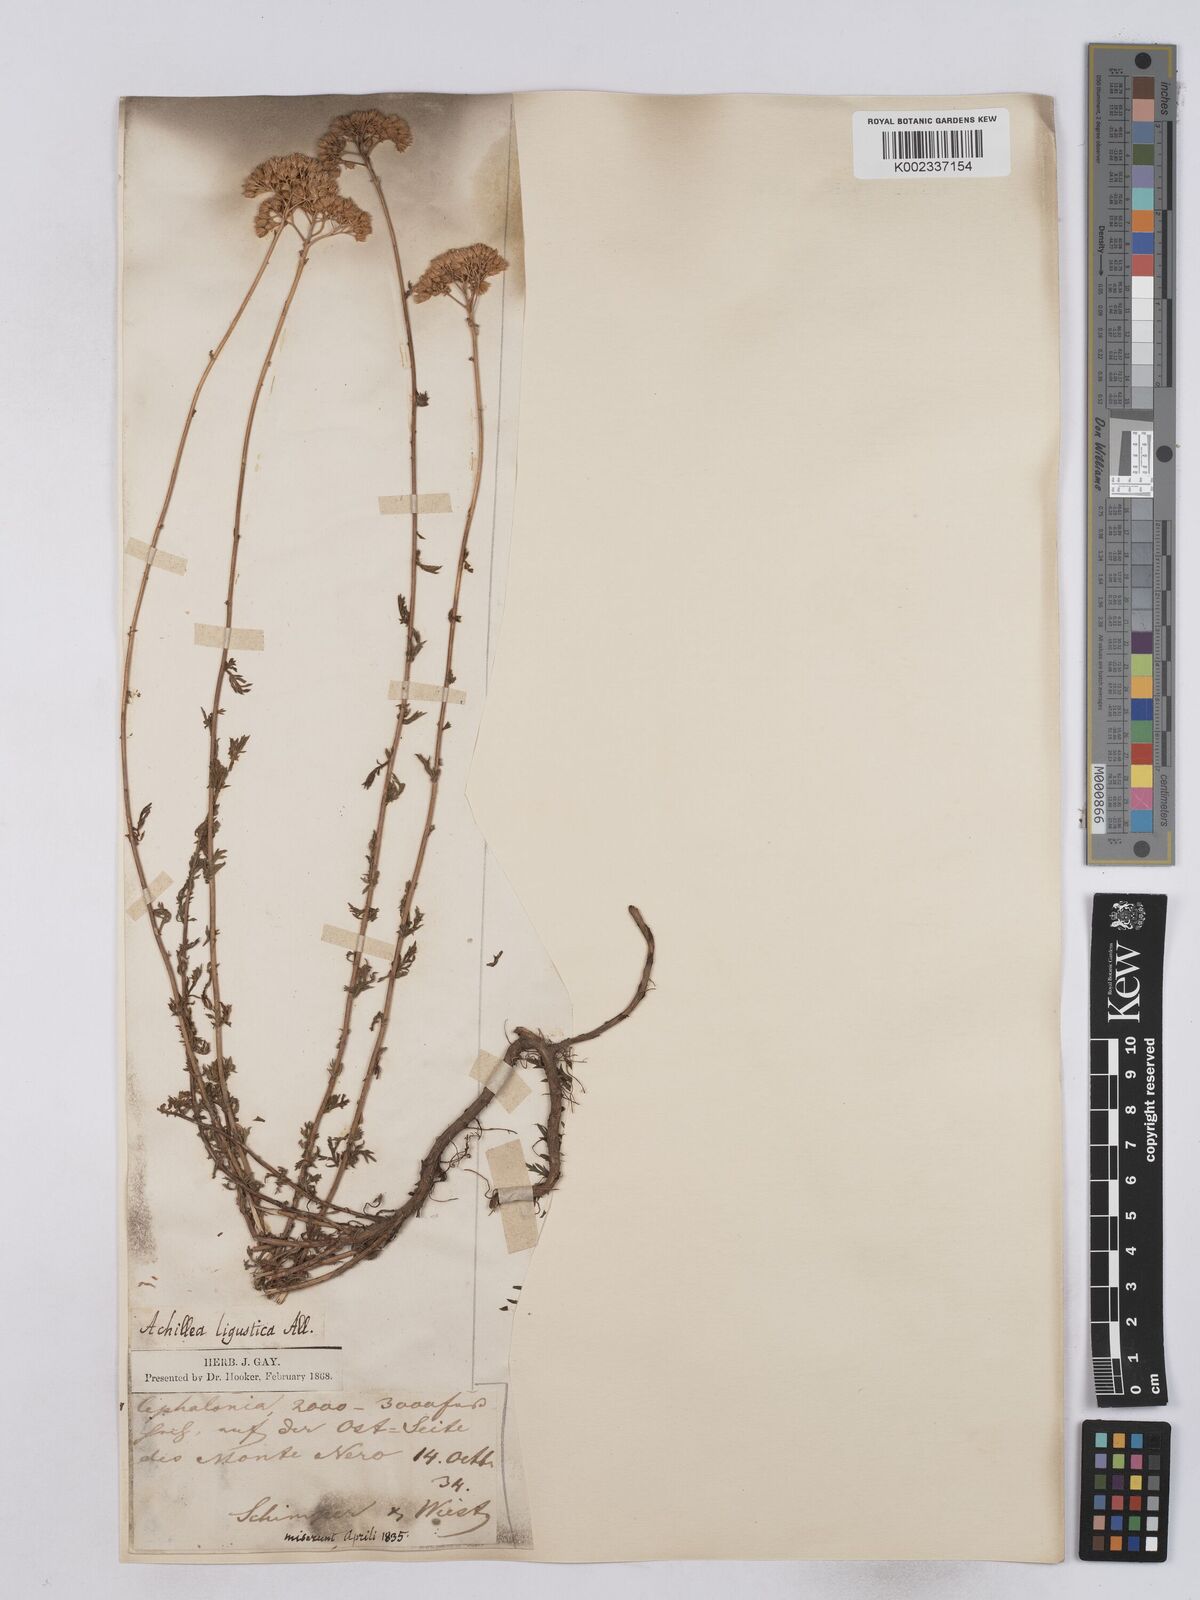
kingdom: Plantae
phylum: Tracheophyta
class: Magnoliopsida
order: Asterales
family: Asteraceae
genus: Achillea
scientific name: Achillea ligustica
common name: Southern yarrow
